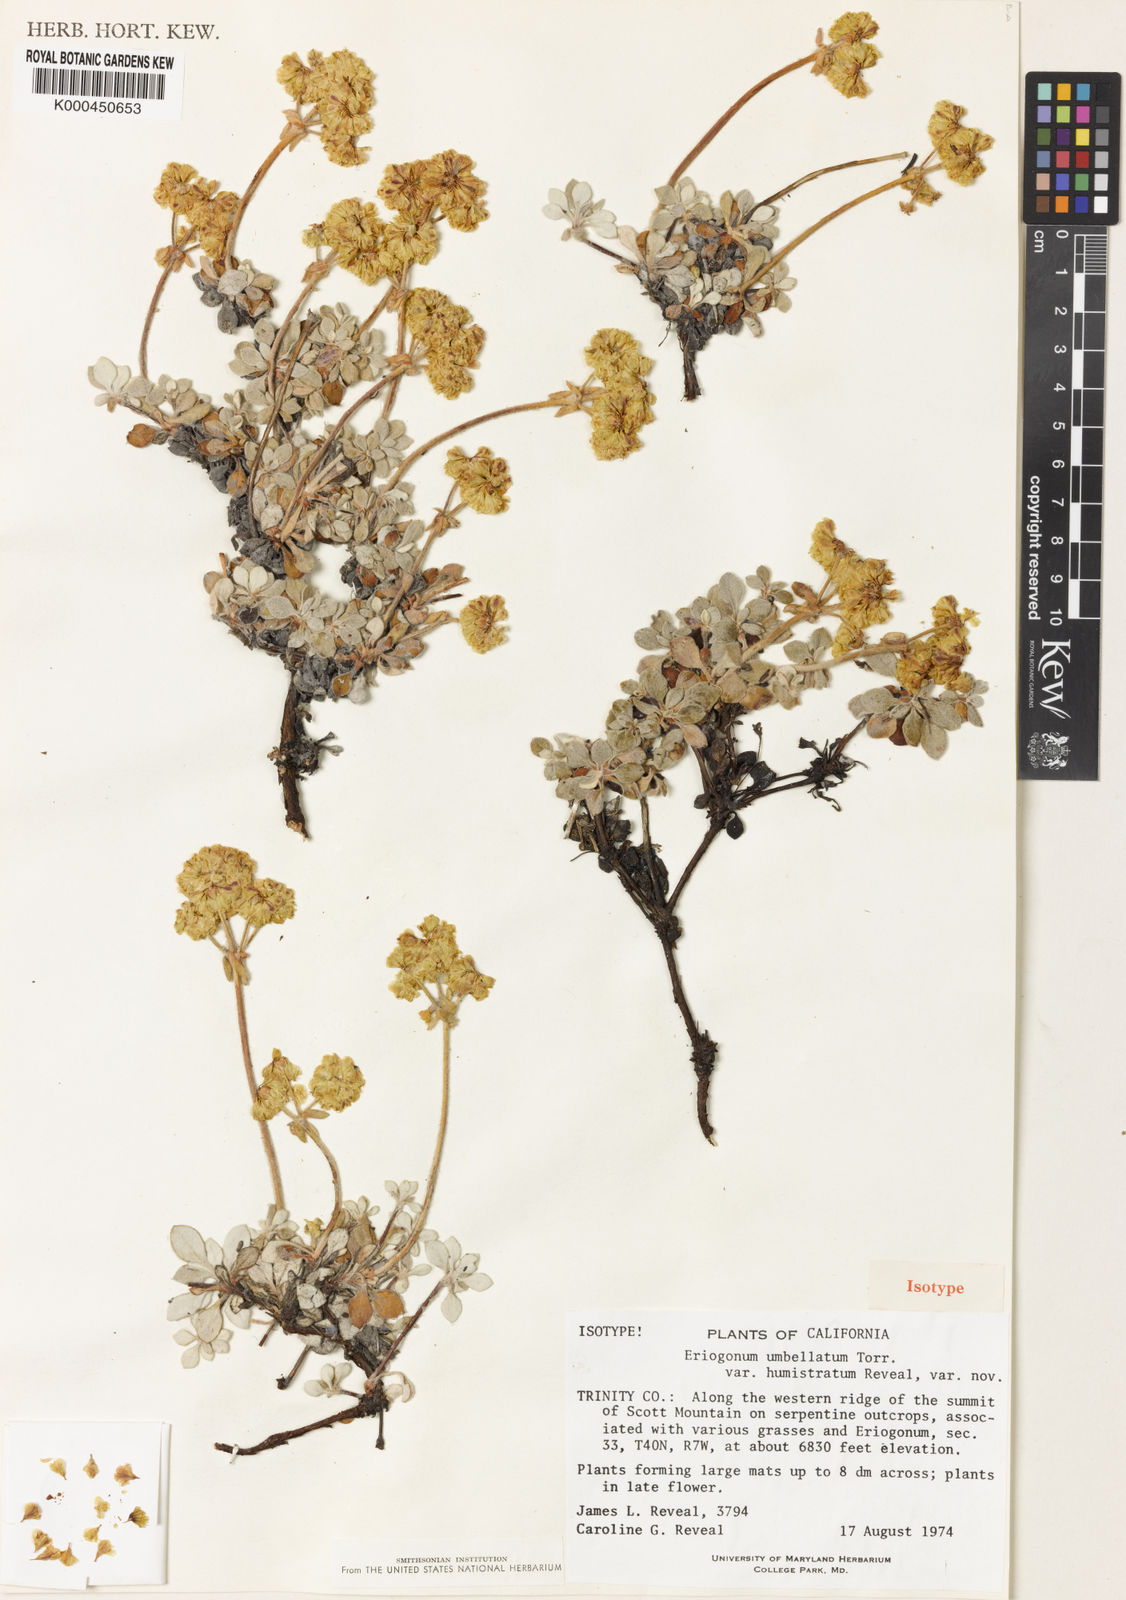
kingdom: Plantae
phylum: Tracheophyta
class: Magnoliopsida
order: Caryophyllales
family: Polygonaceae
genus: Eriogonum
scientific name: Eriogonum umbellatum
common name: Sulfur-buckwheat
